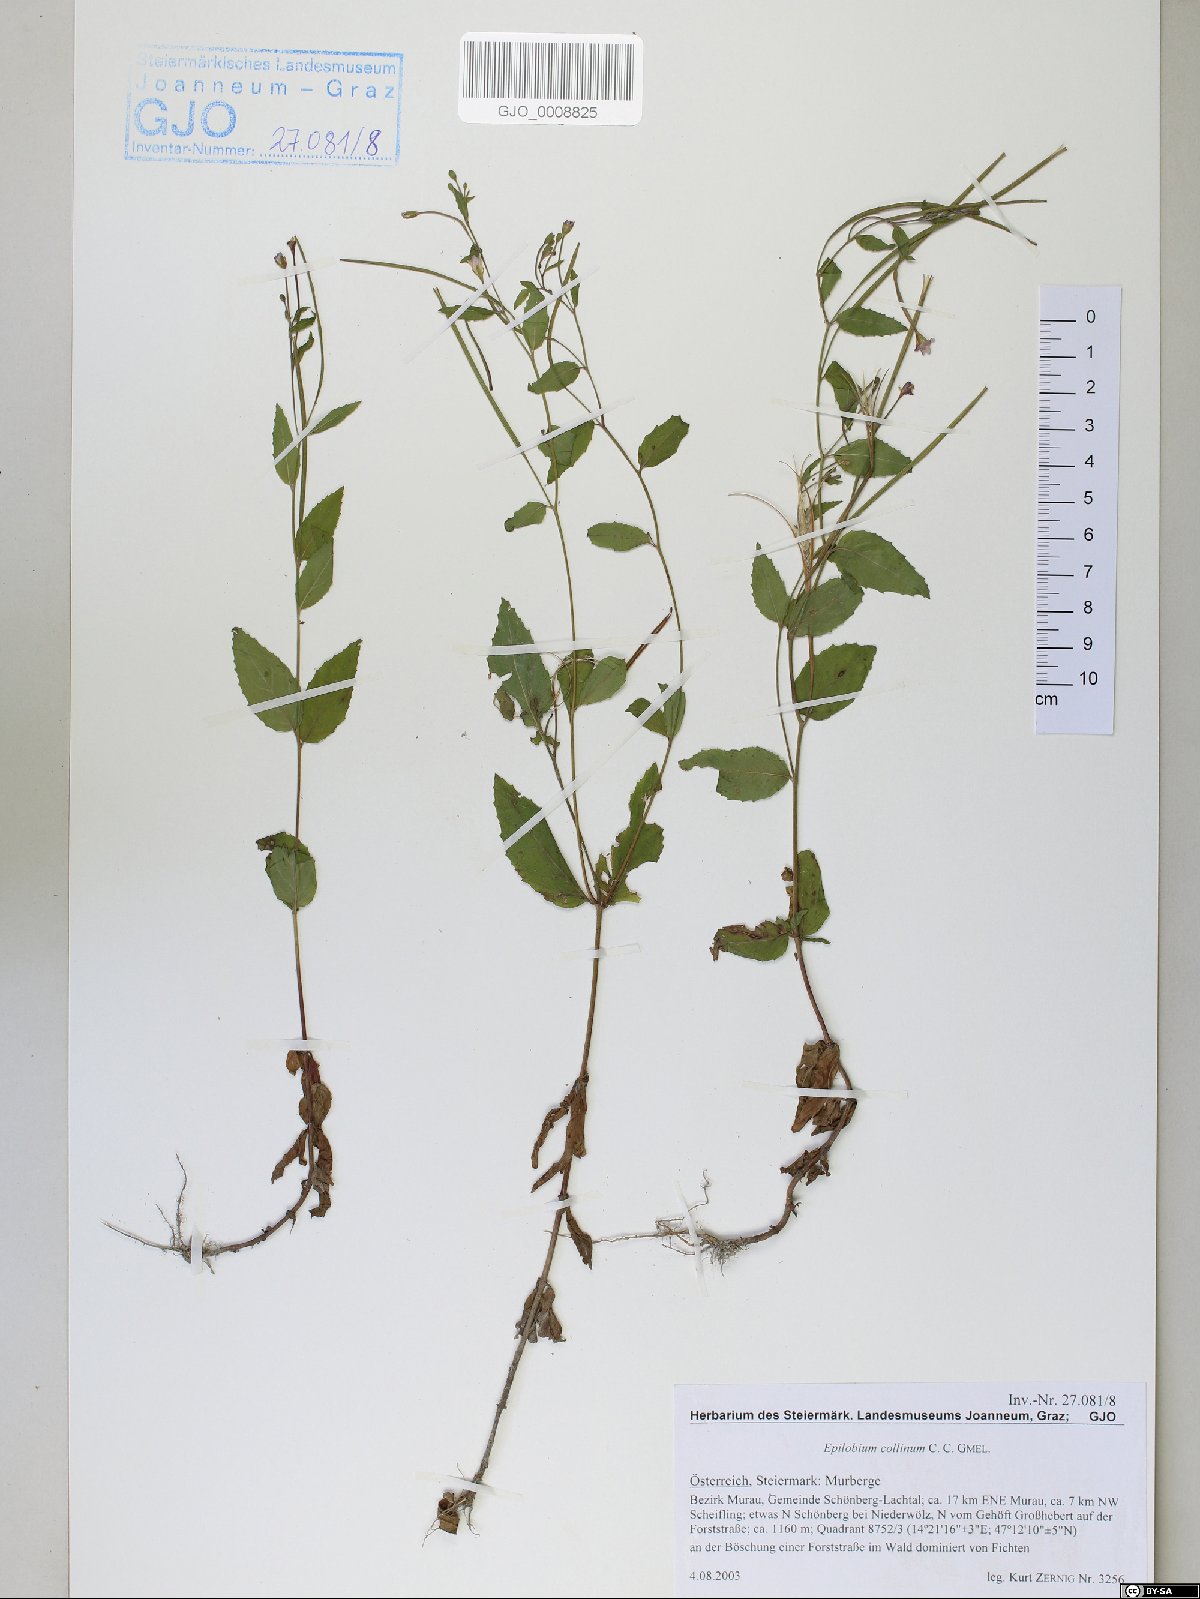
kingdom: Plantae
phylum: Tracheophyta
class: Magnoliopsida
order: Myrtales
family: Onagraceae
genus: Epilobium
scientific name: Epilobium collinum
